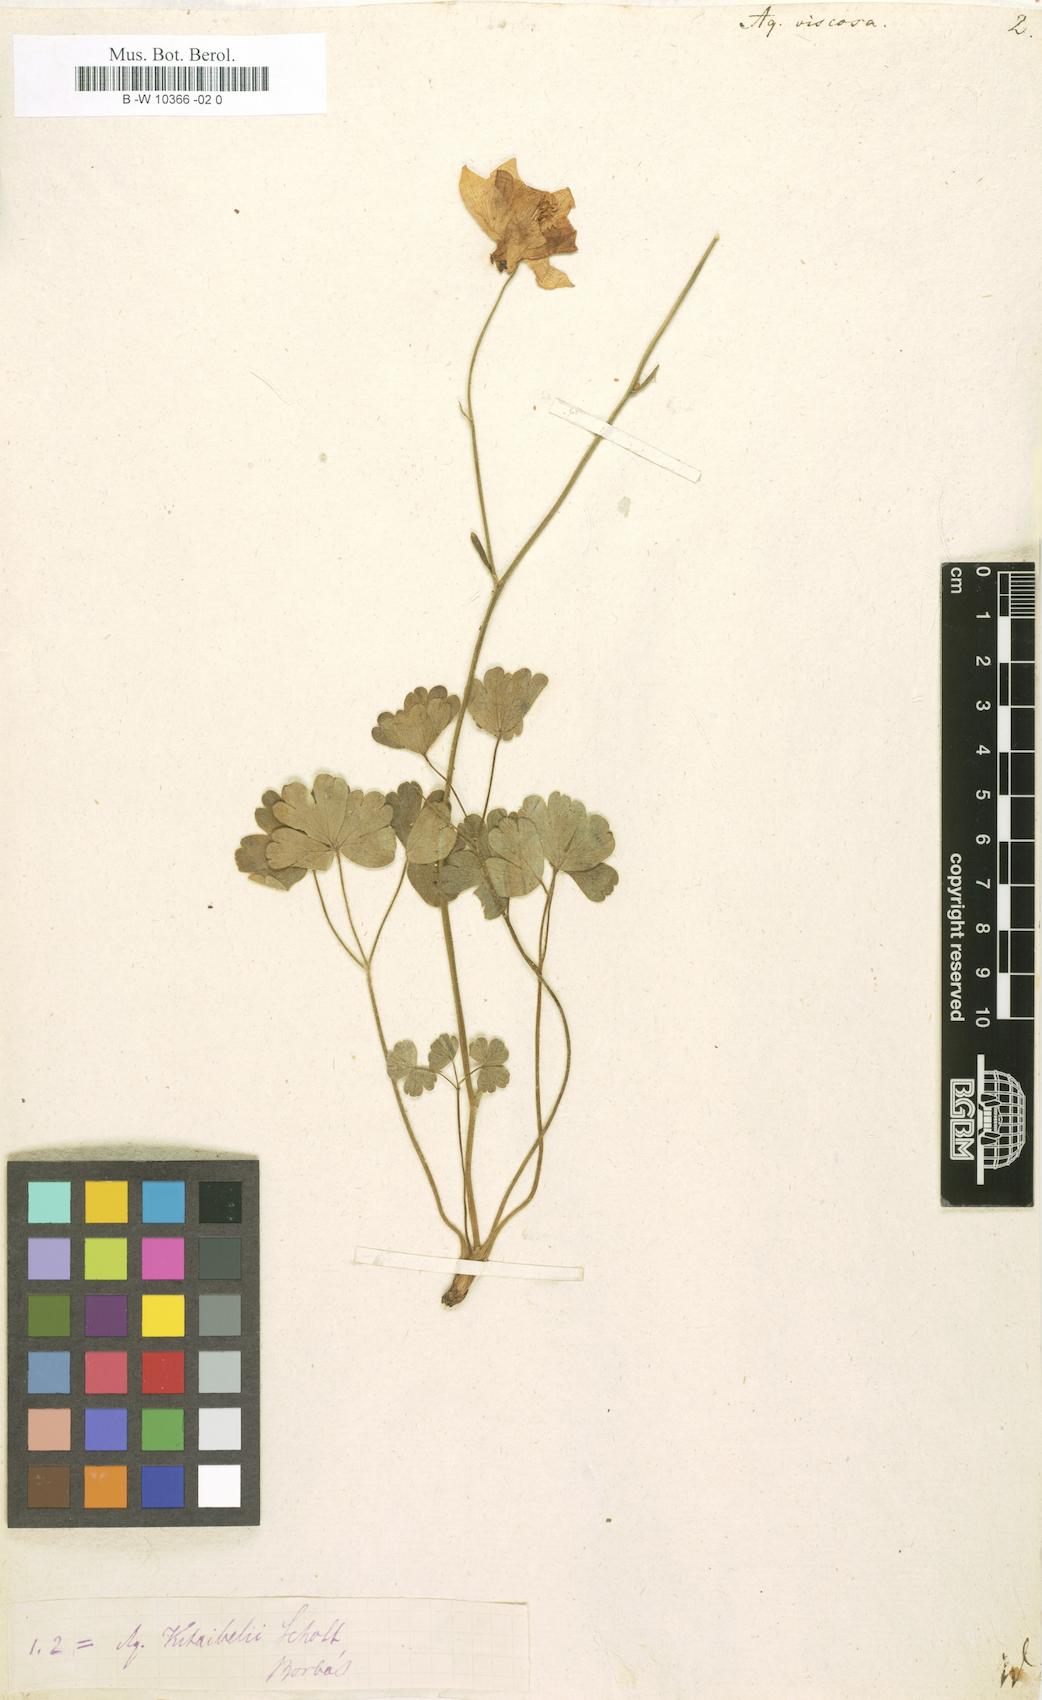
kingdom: Plantae
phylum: Tracheophyta
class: Magnoliopsida
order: Ranunculales
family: Ranunculaceae
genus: Aquilegia
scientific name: Aquilegia viscosa
